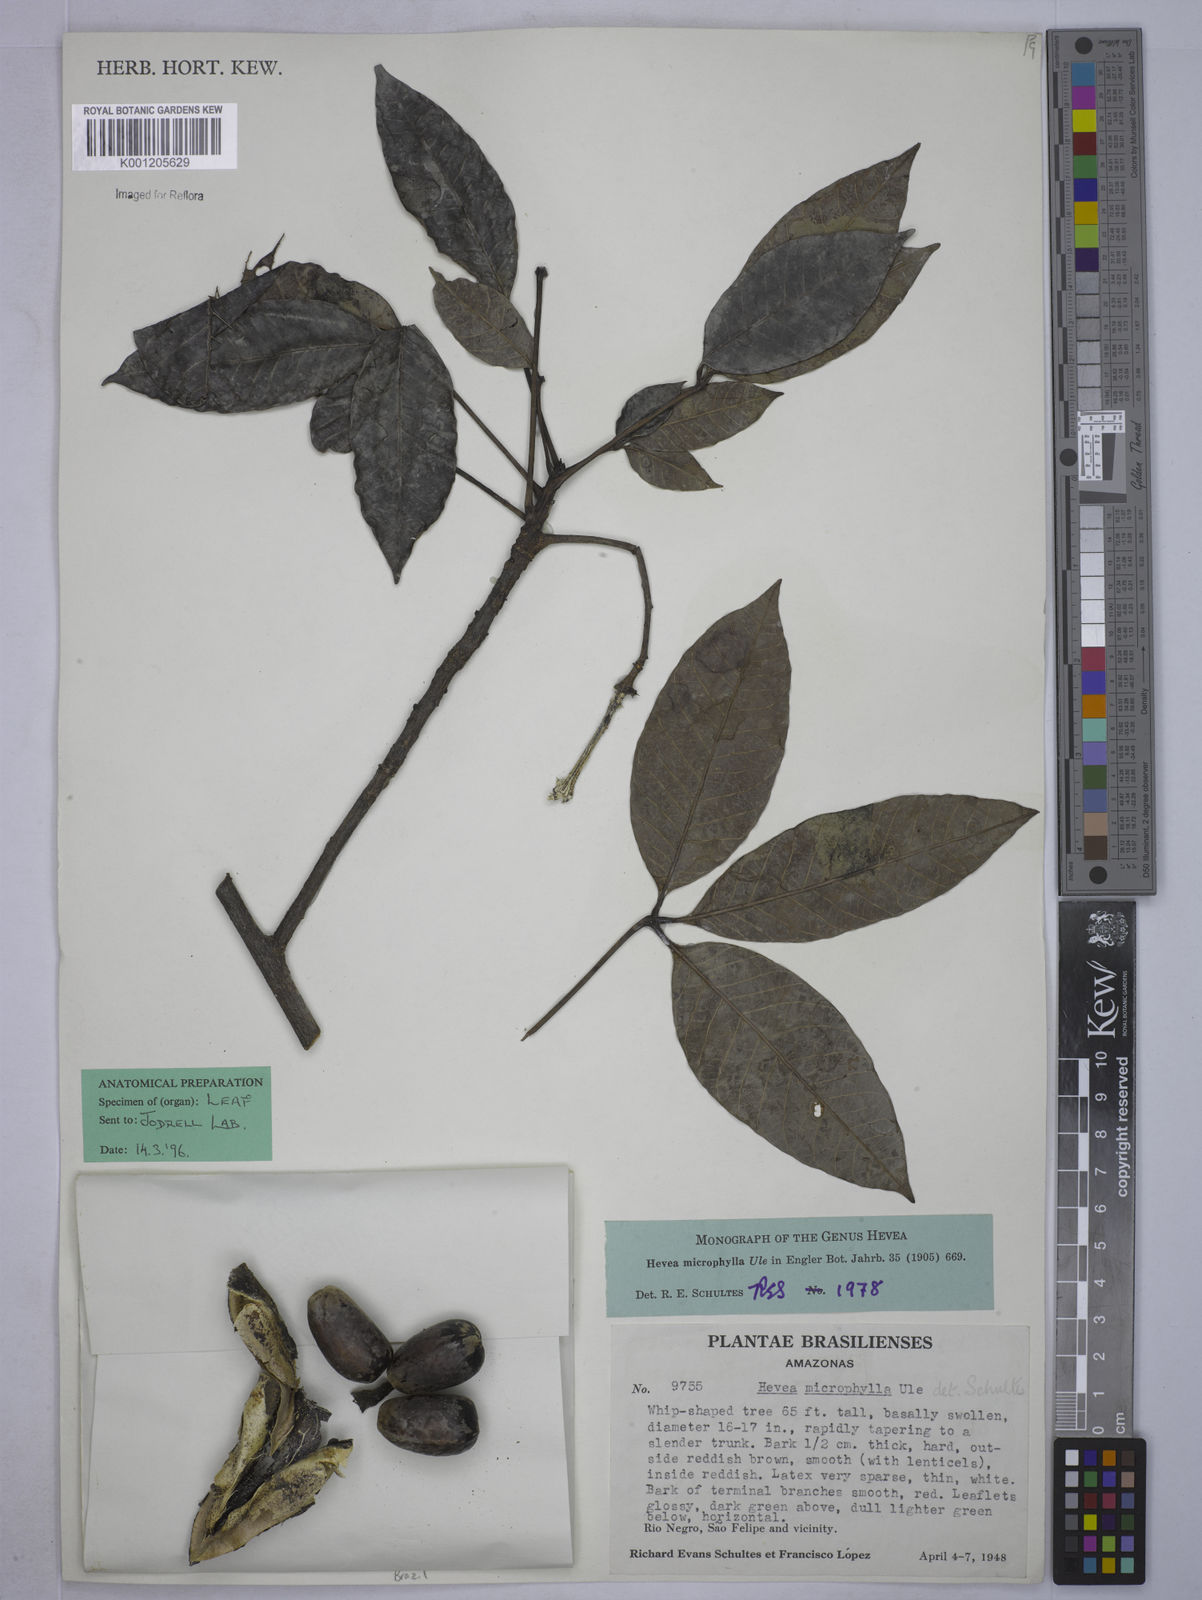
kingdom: Plantae
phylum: Tracheophyta
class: Magnoliopsida
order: Malpighiales
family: Euphorbiaceae
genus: Hevea
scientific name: Hevea microphylla
